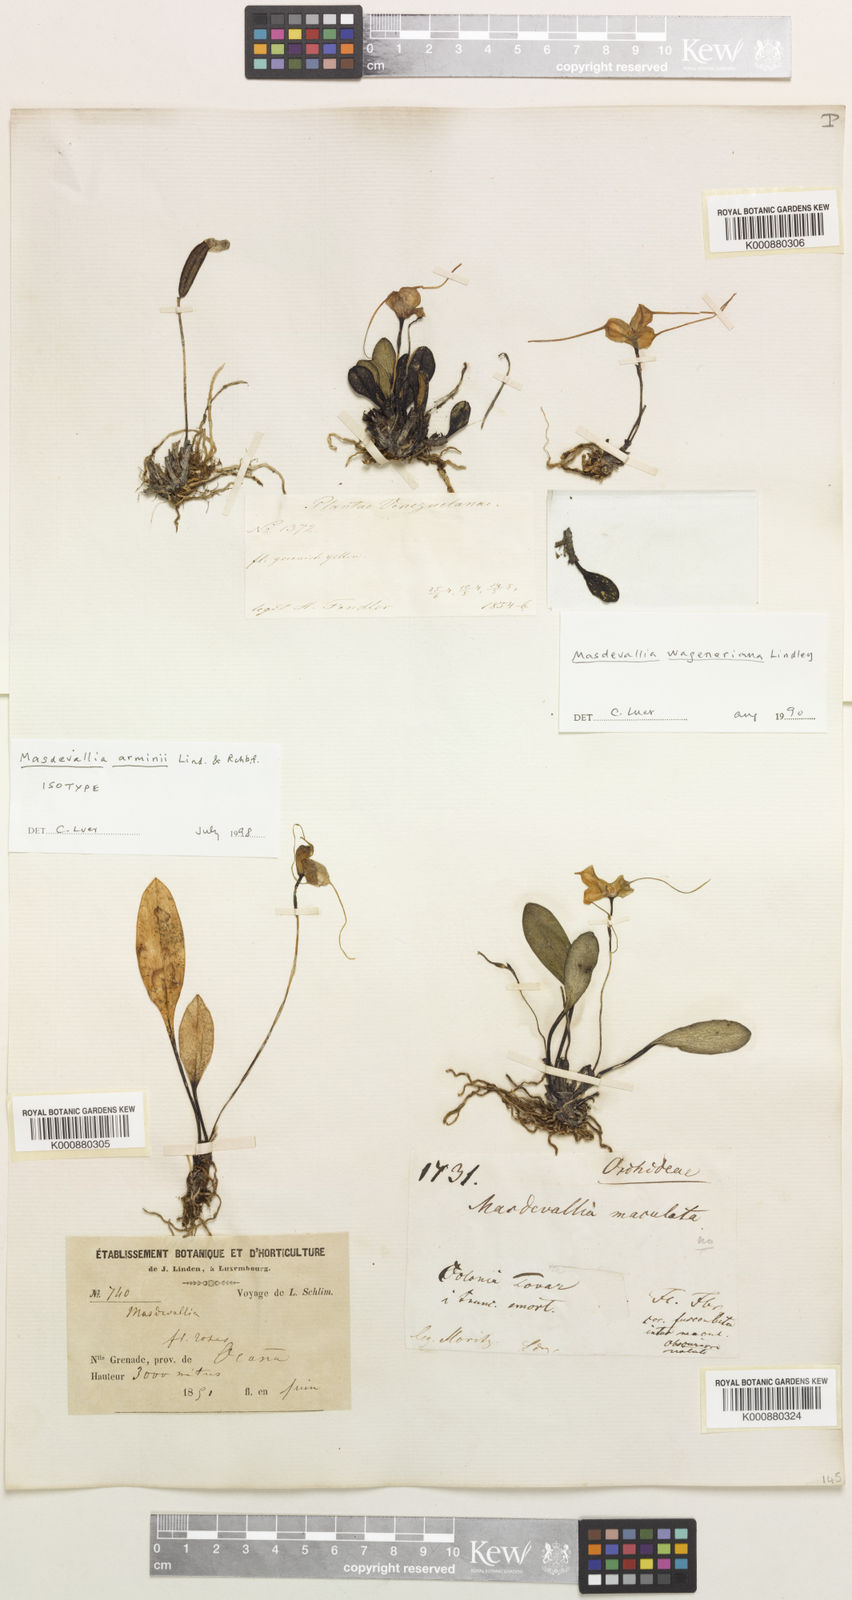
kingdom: Plantae
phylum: Tracheophyta
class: Liliopsida
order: Asparagales
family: Orchidaceae
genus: Masdevallia
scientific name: Masdevallia arminii
